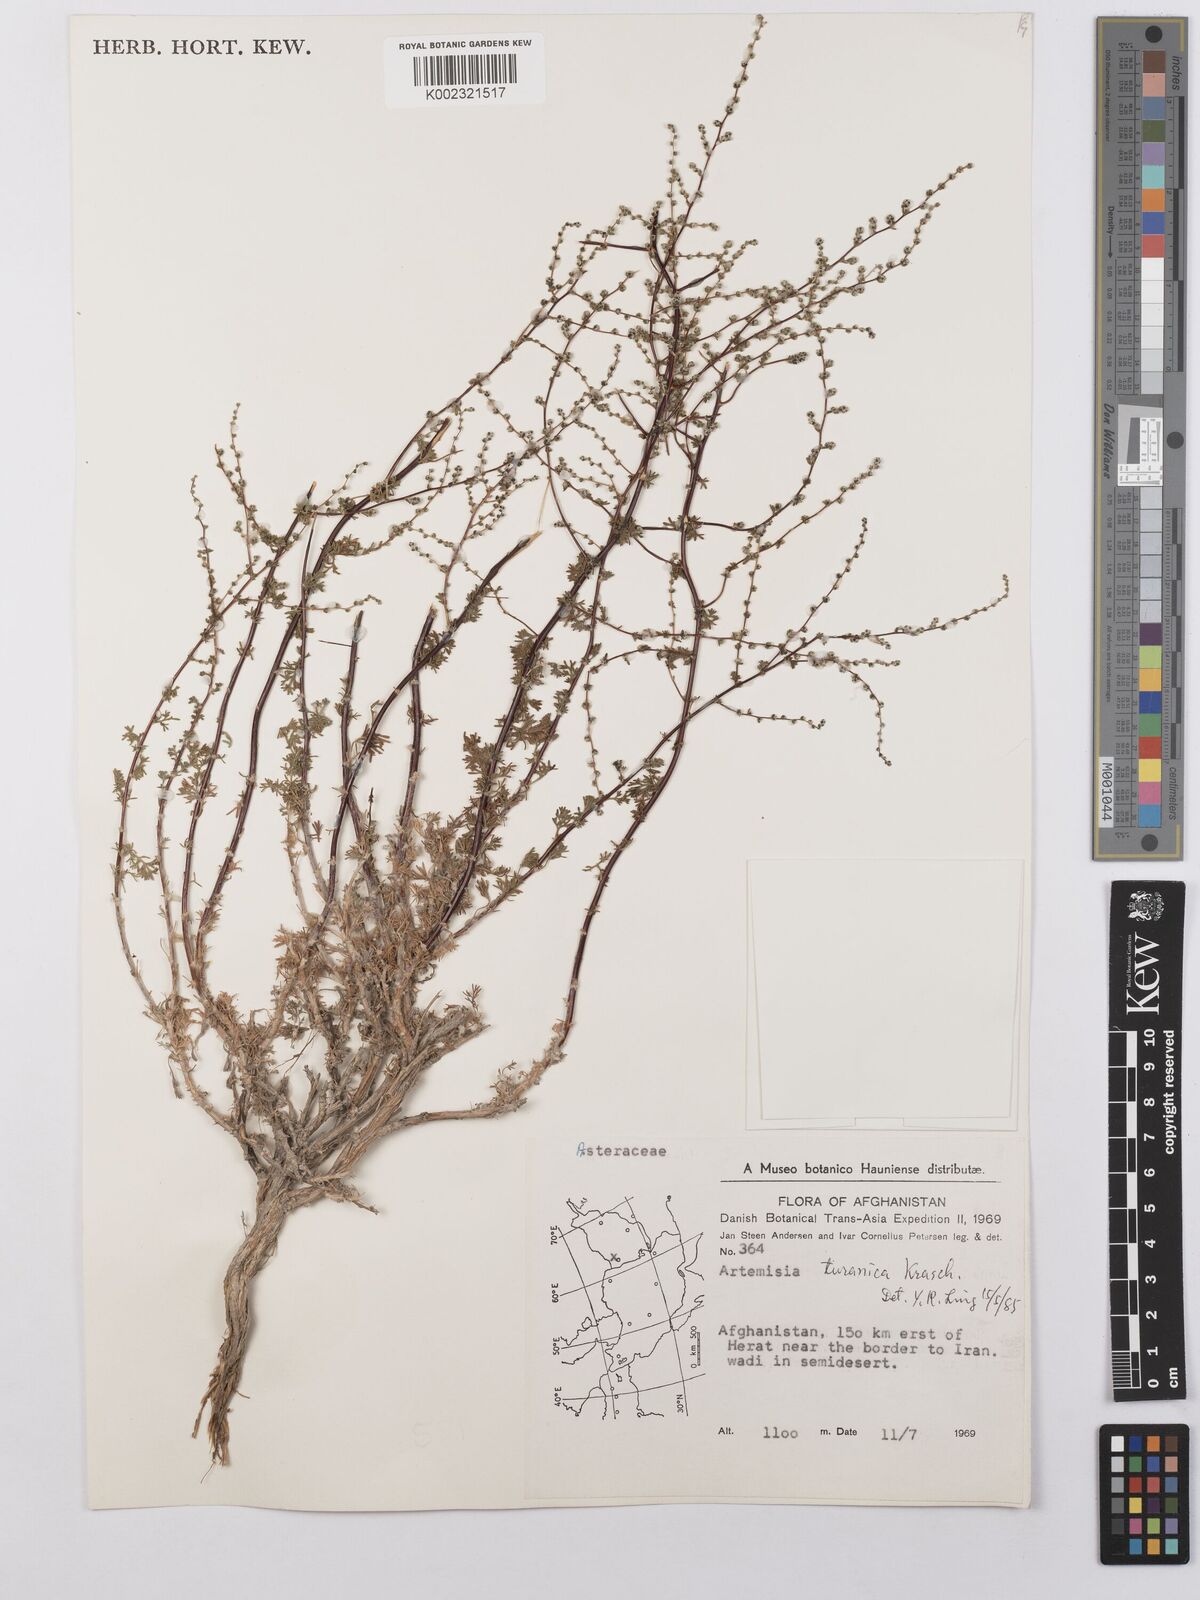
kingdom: Plantae
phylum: Tracheophyta
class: Magnoliopsida
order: Asterales
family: Asteraceae
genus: Artemisia
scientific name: Artemisia turanica
